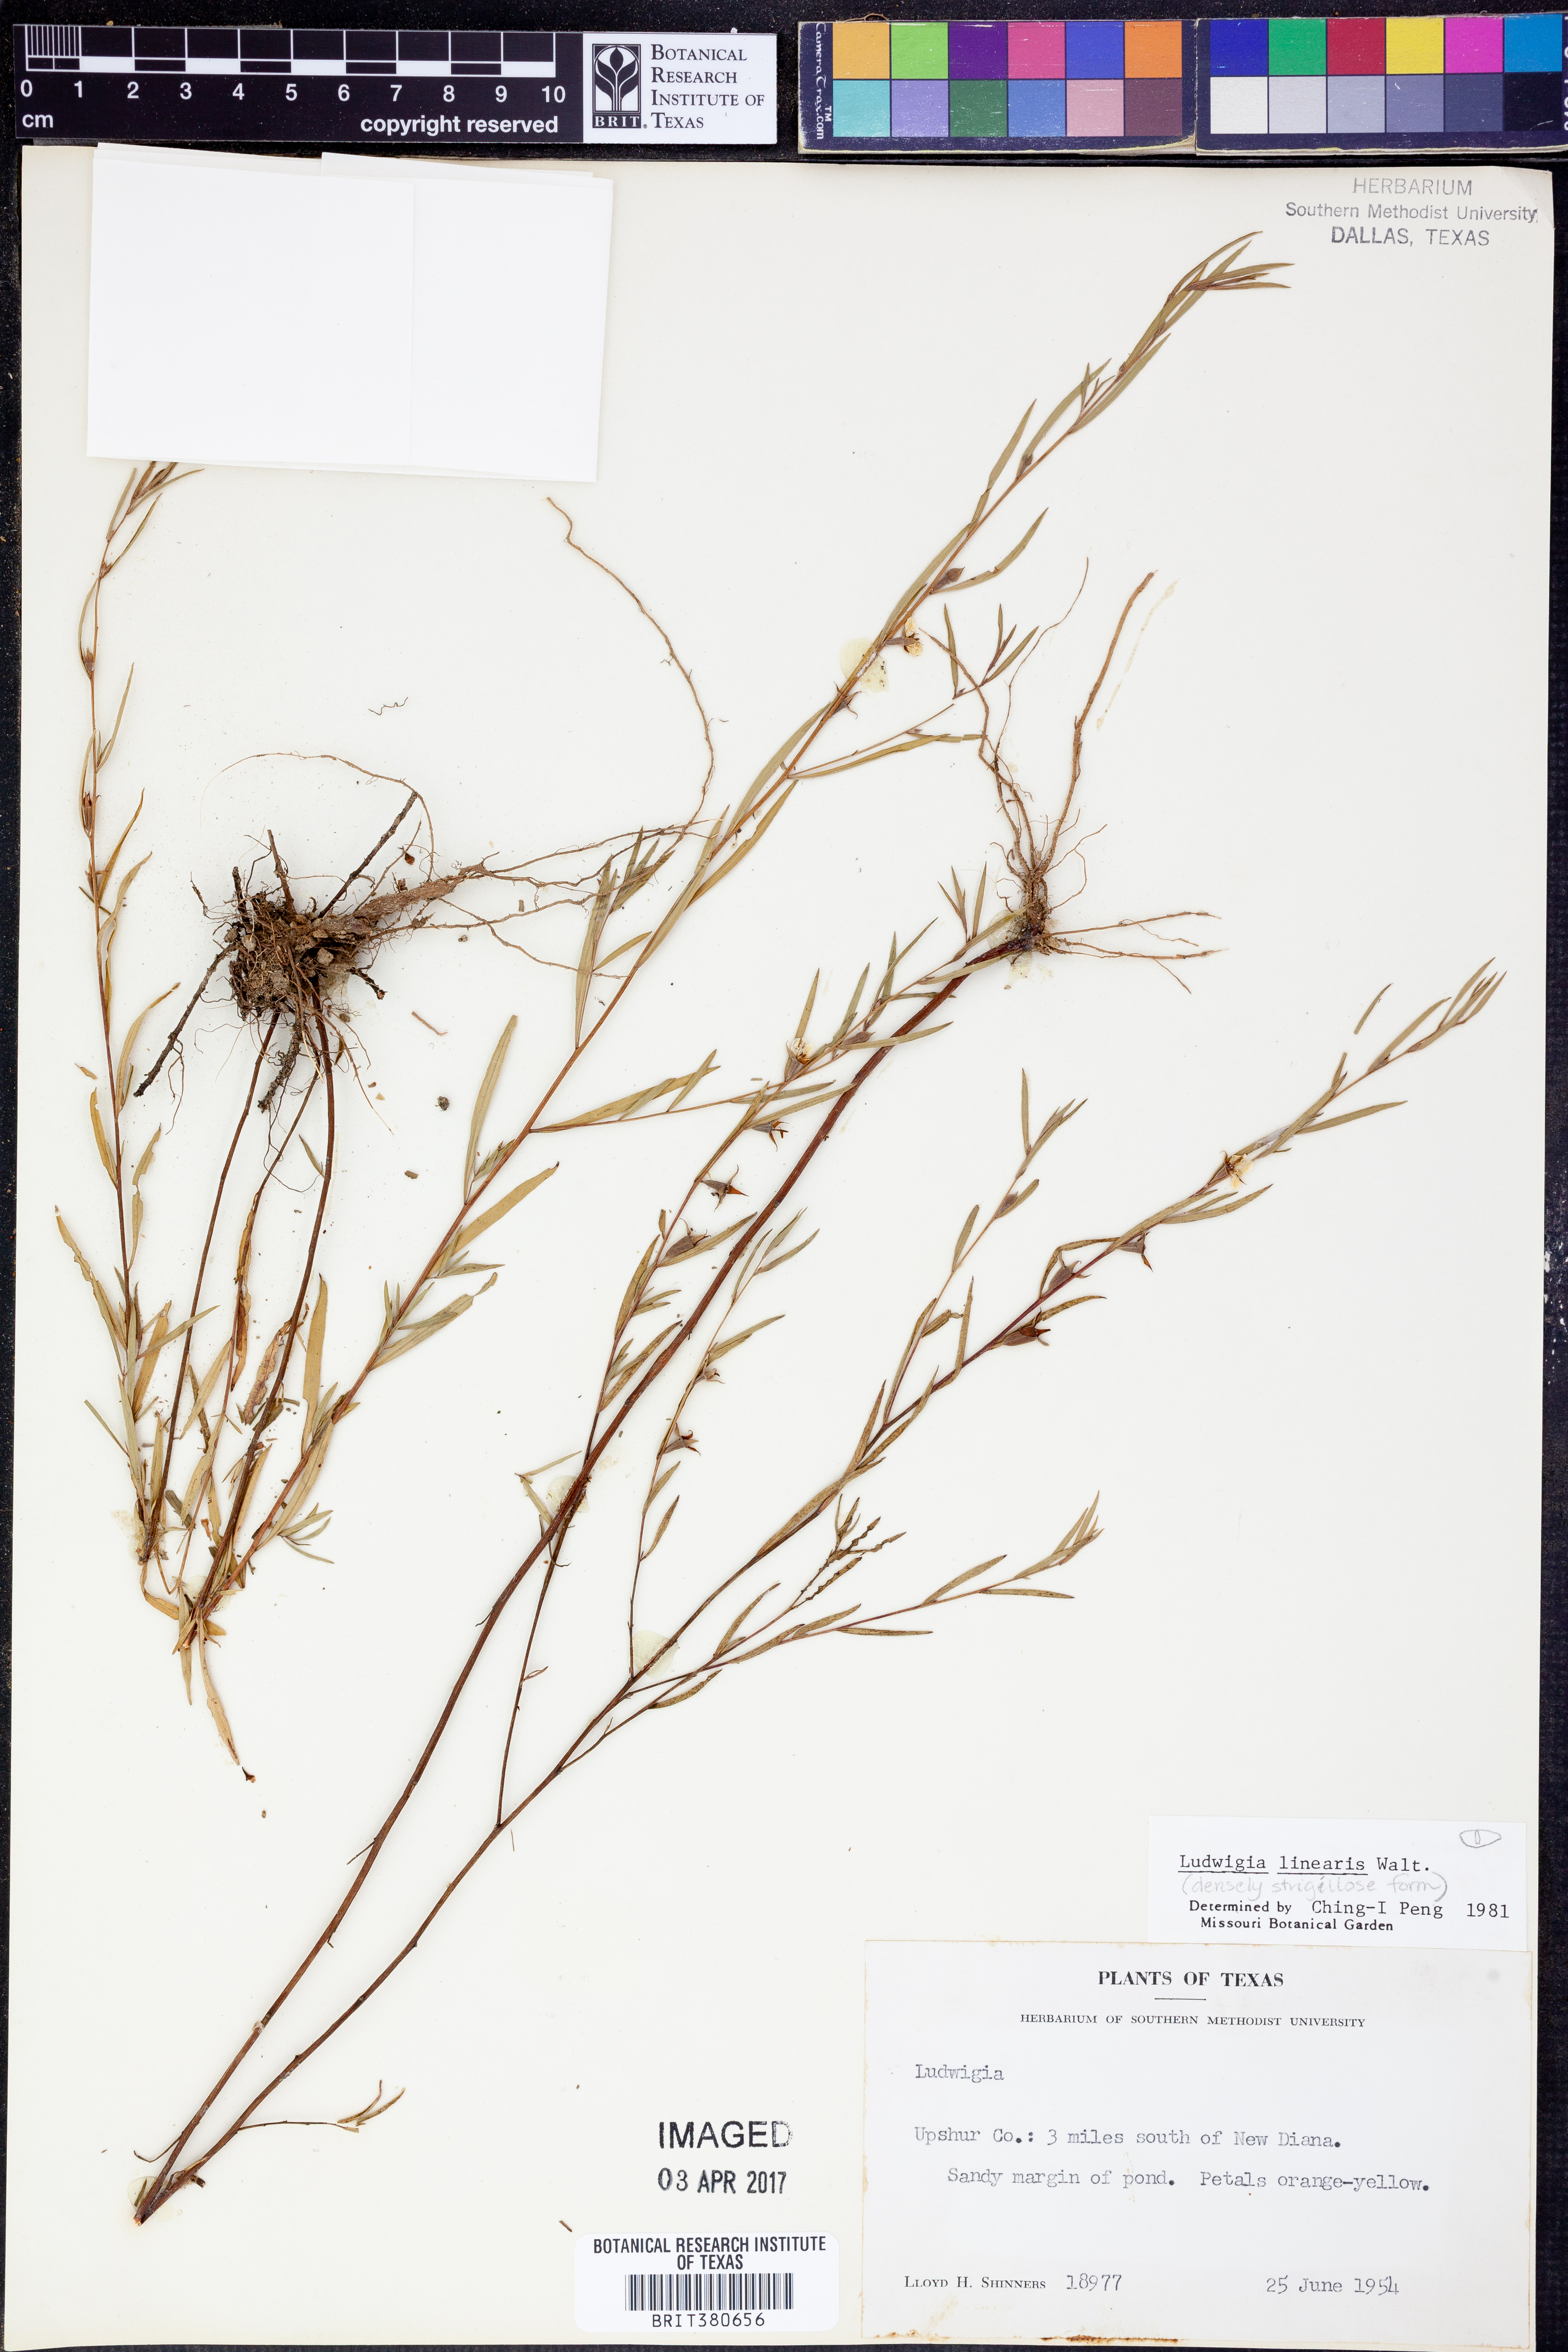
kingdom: Plantae
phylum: Tracheophyta
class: Magnoliopsida
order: Myrtales
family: Onagraceae
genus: Ludwigia
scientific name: Ludwigia linearis
